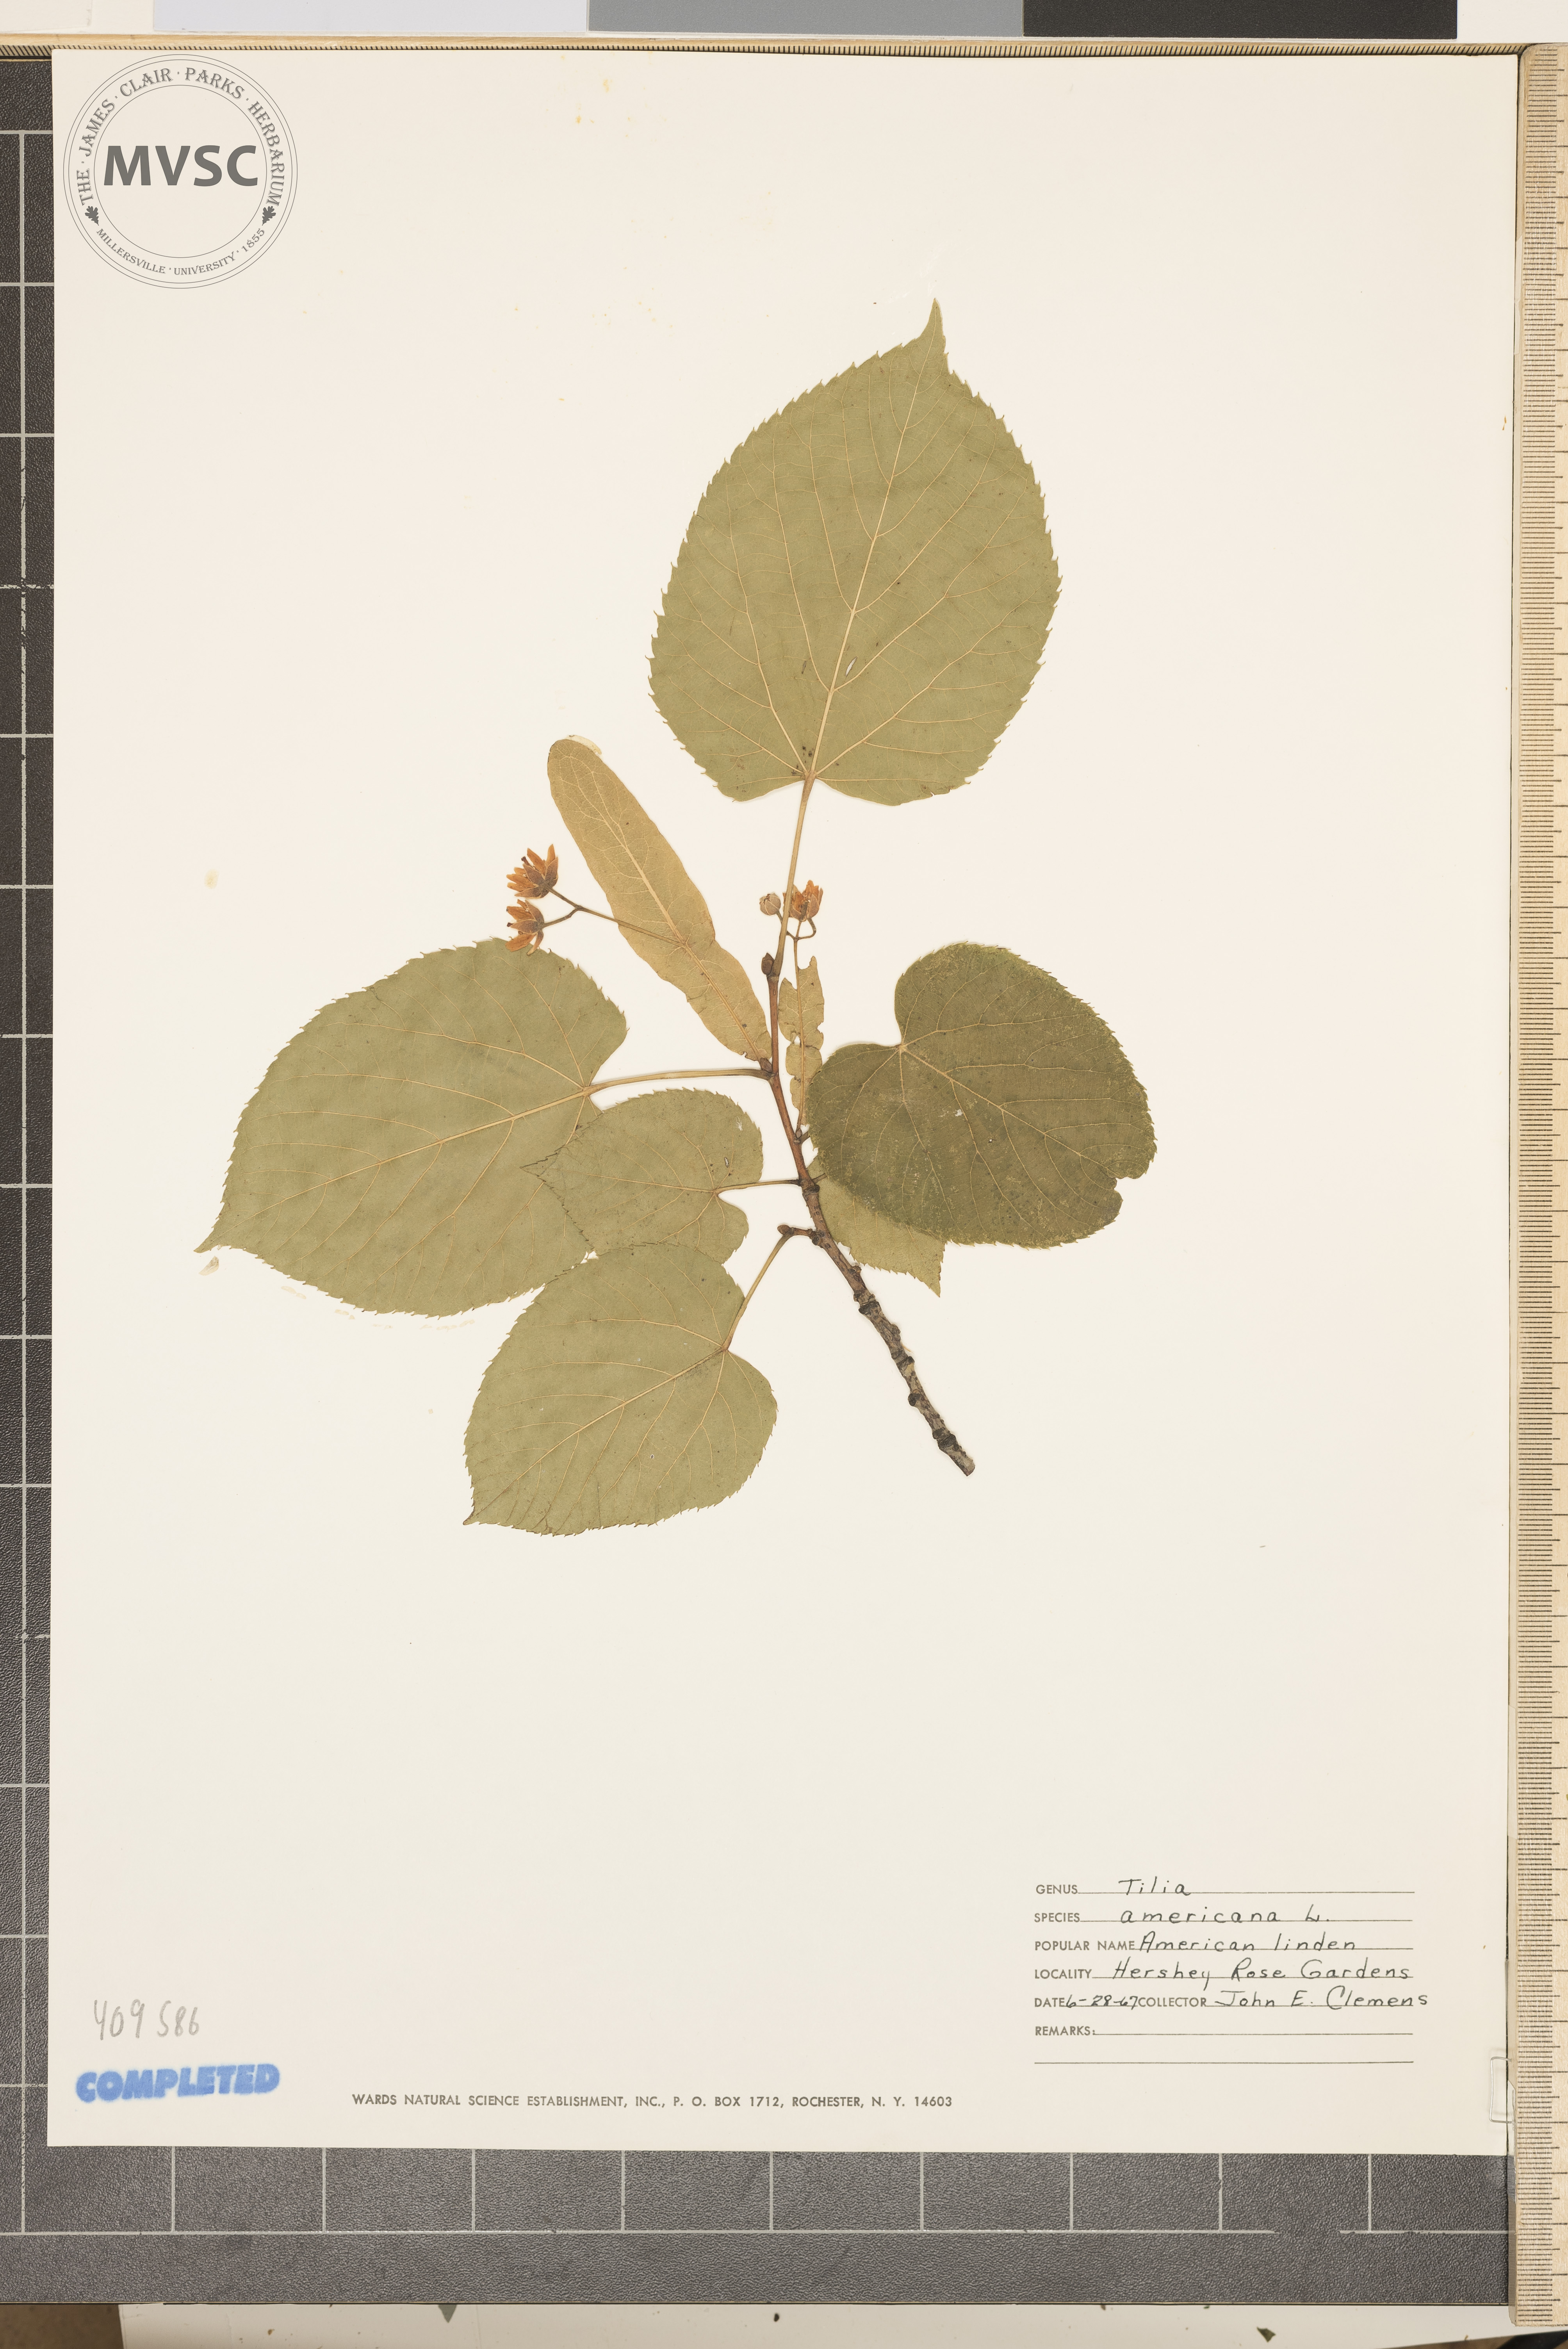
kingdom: Plantae
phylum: Tracheophyta
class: Magnoliopsida
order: Malvales
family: Malvaceae
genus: Tilia
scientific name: Tilia americana
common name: American basswood
